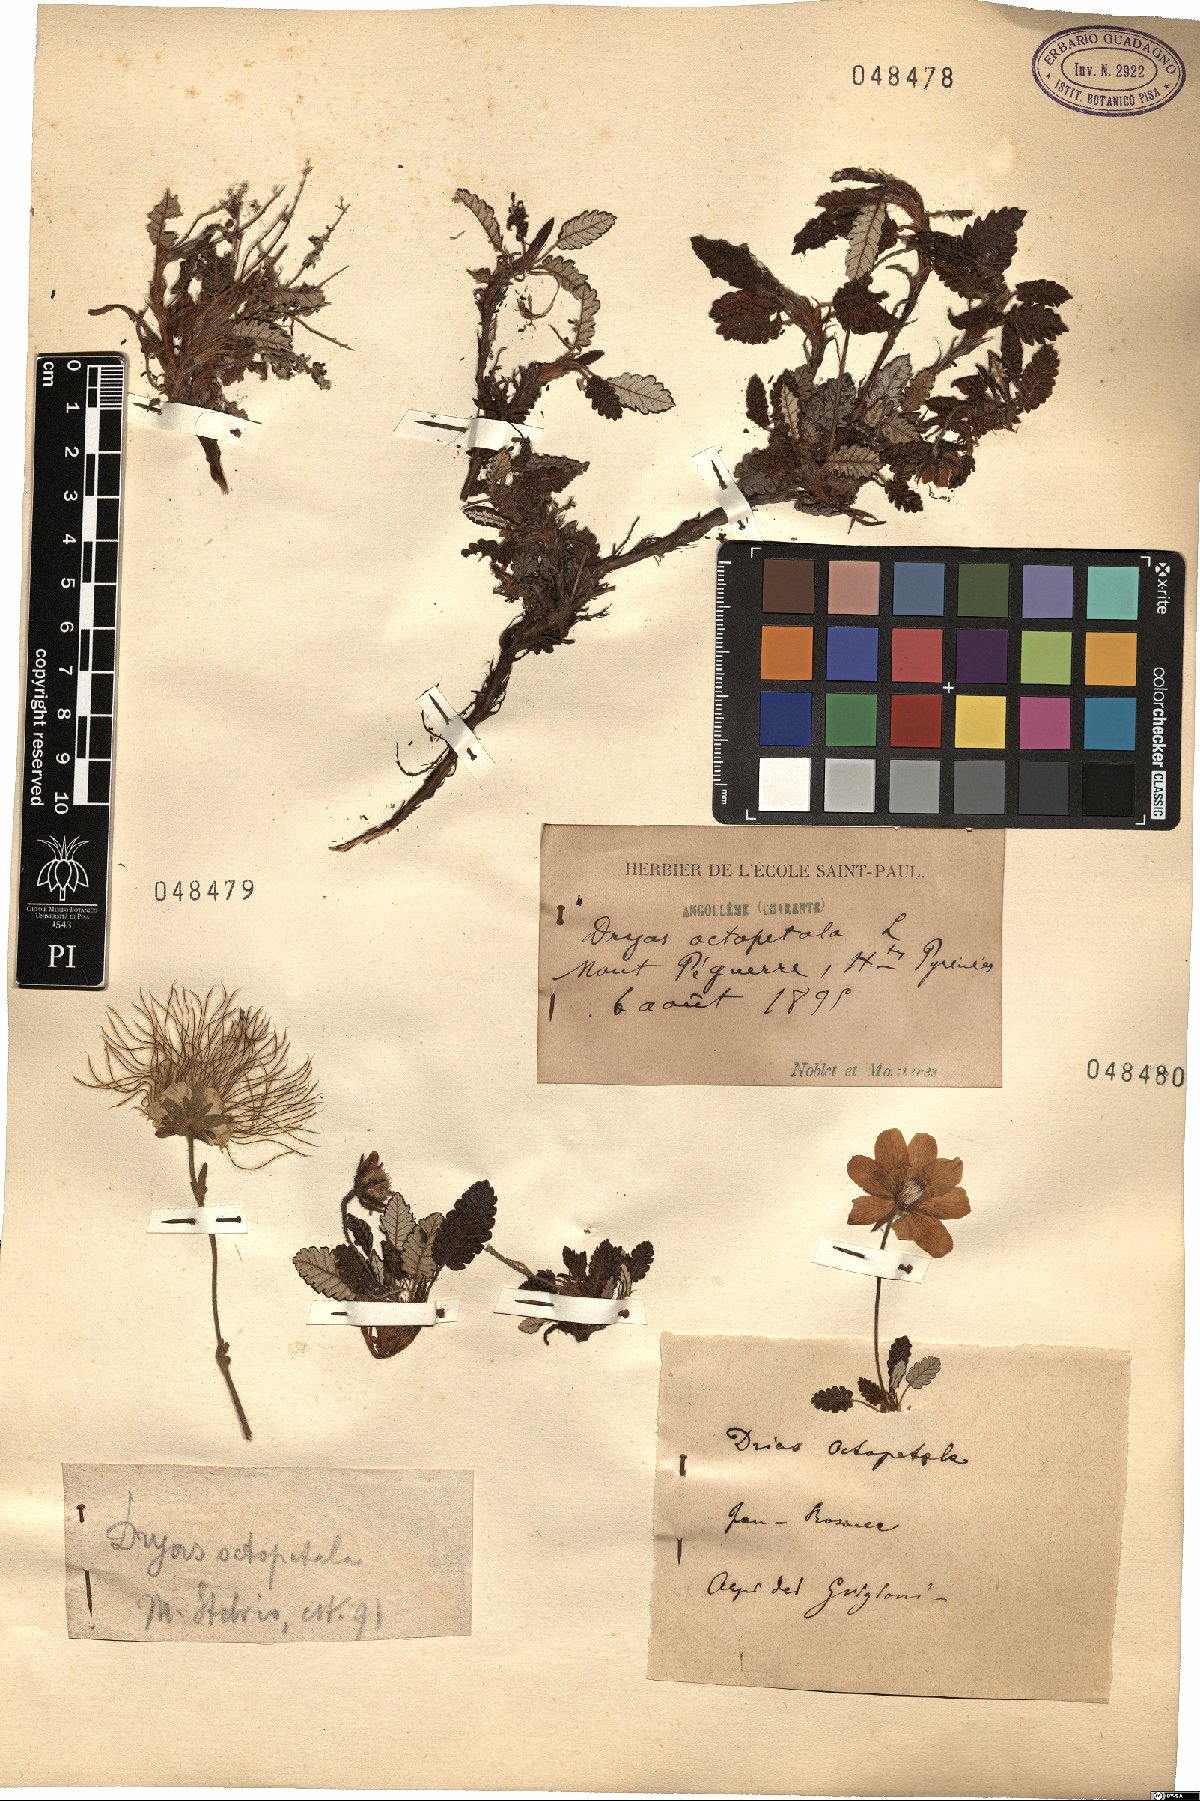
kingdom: Plantae
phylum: Tracheophyta
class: Magnoliopsida
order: Rosales
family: Rosaceae
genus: Dryas
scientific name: Dryas octopetala
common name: Eight-petal mountain-avens
